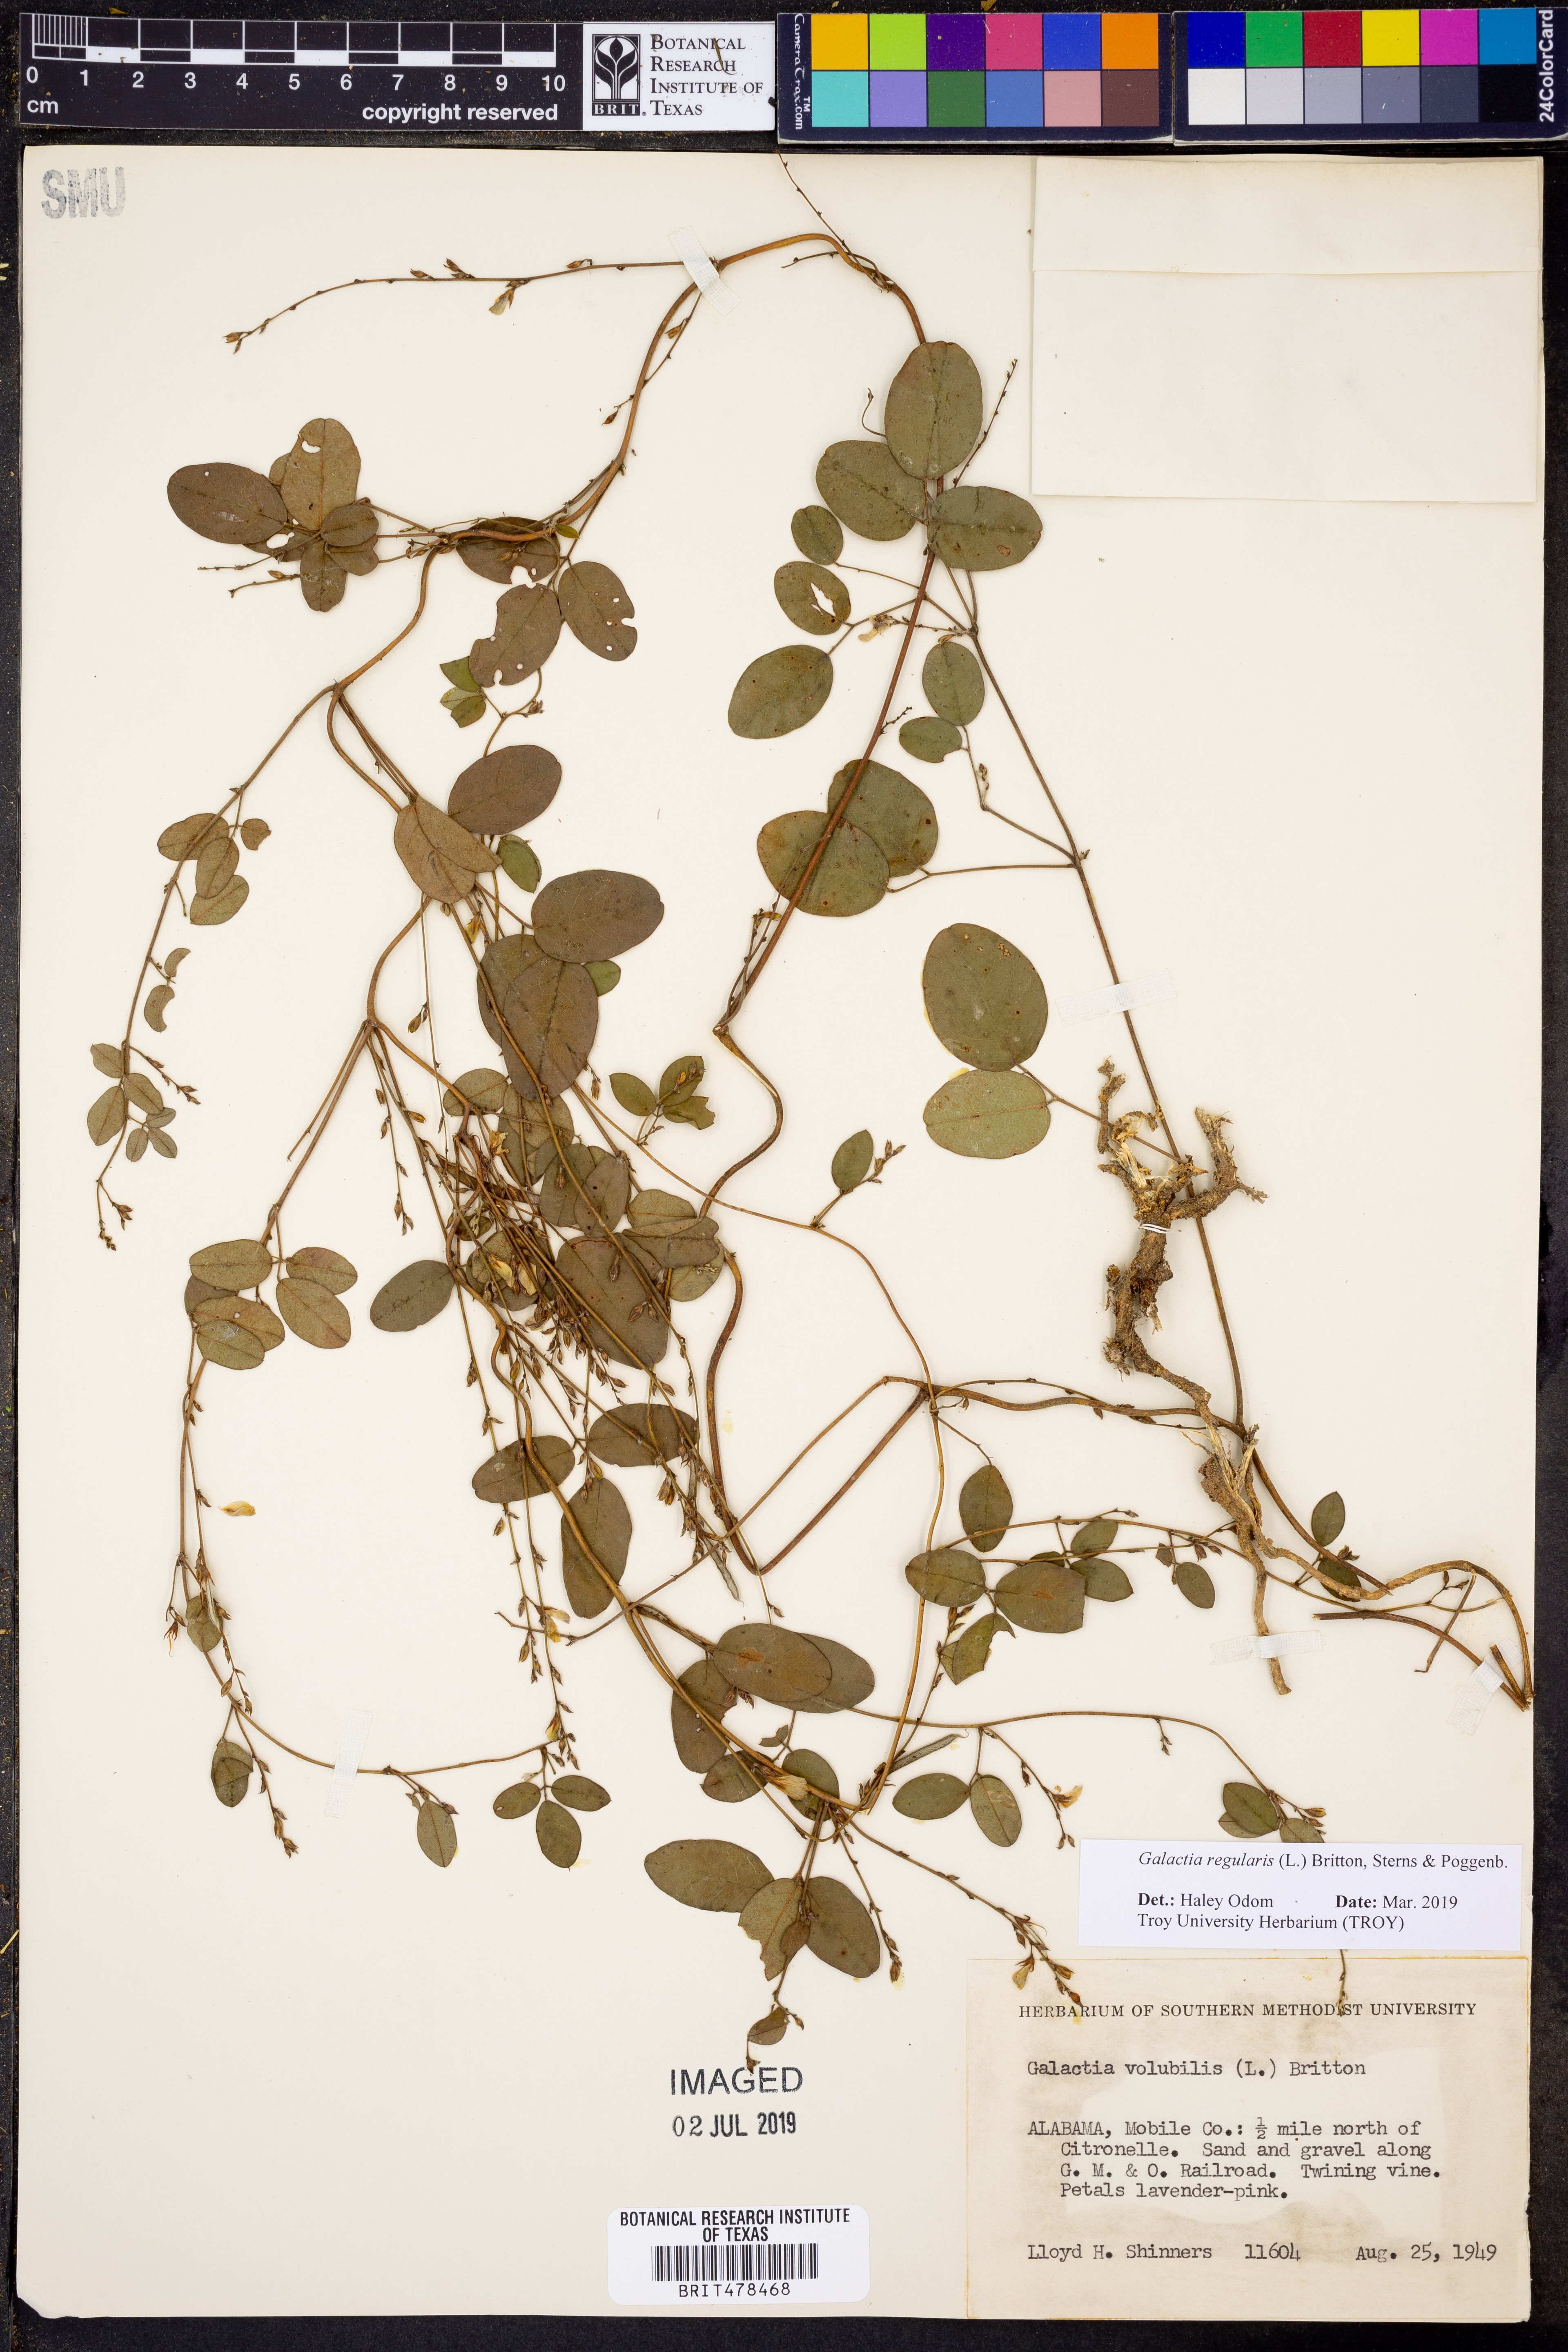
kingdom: Plantae
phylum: Tracheophyta
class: Magnoliopsida
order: Fabales
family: Fabaceae
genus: Galactia
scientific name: Galactia regularis
